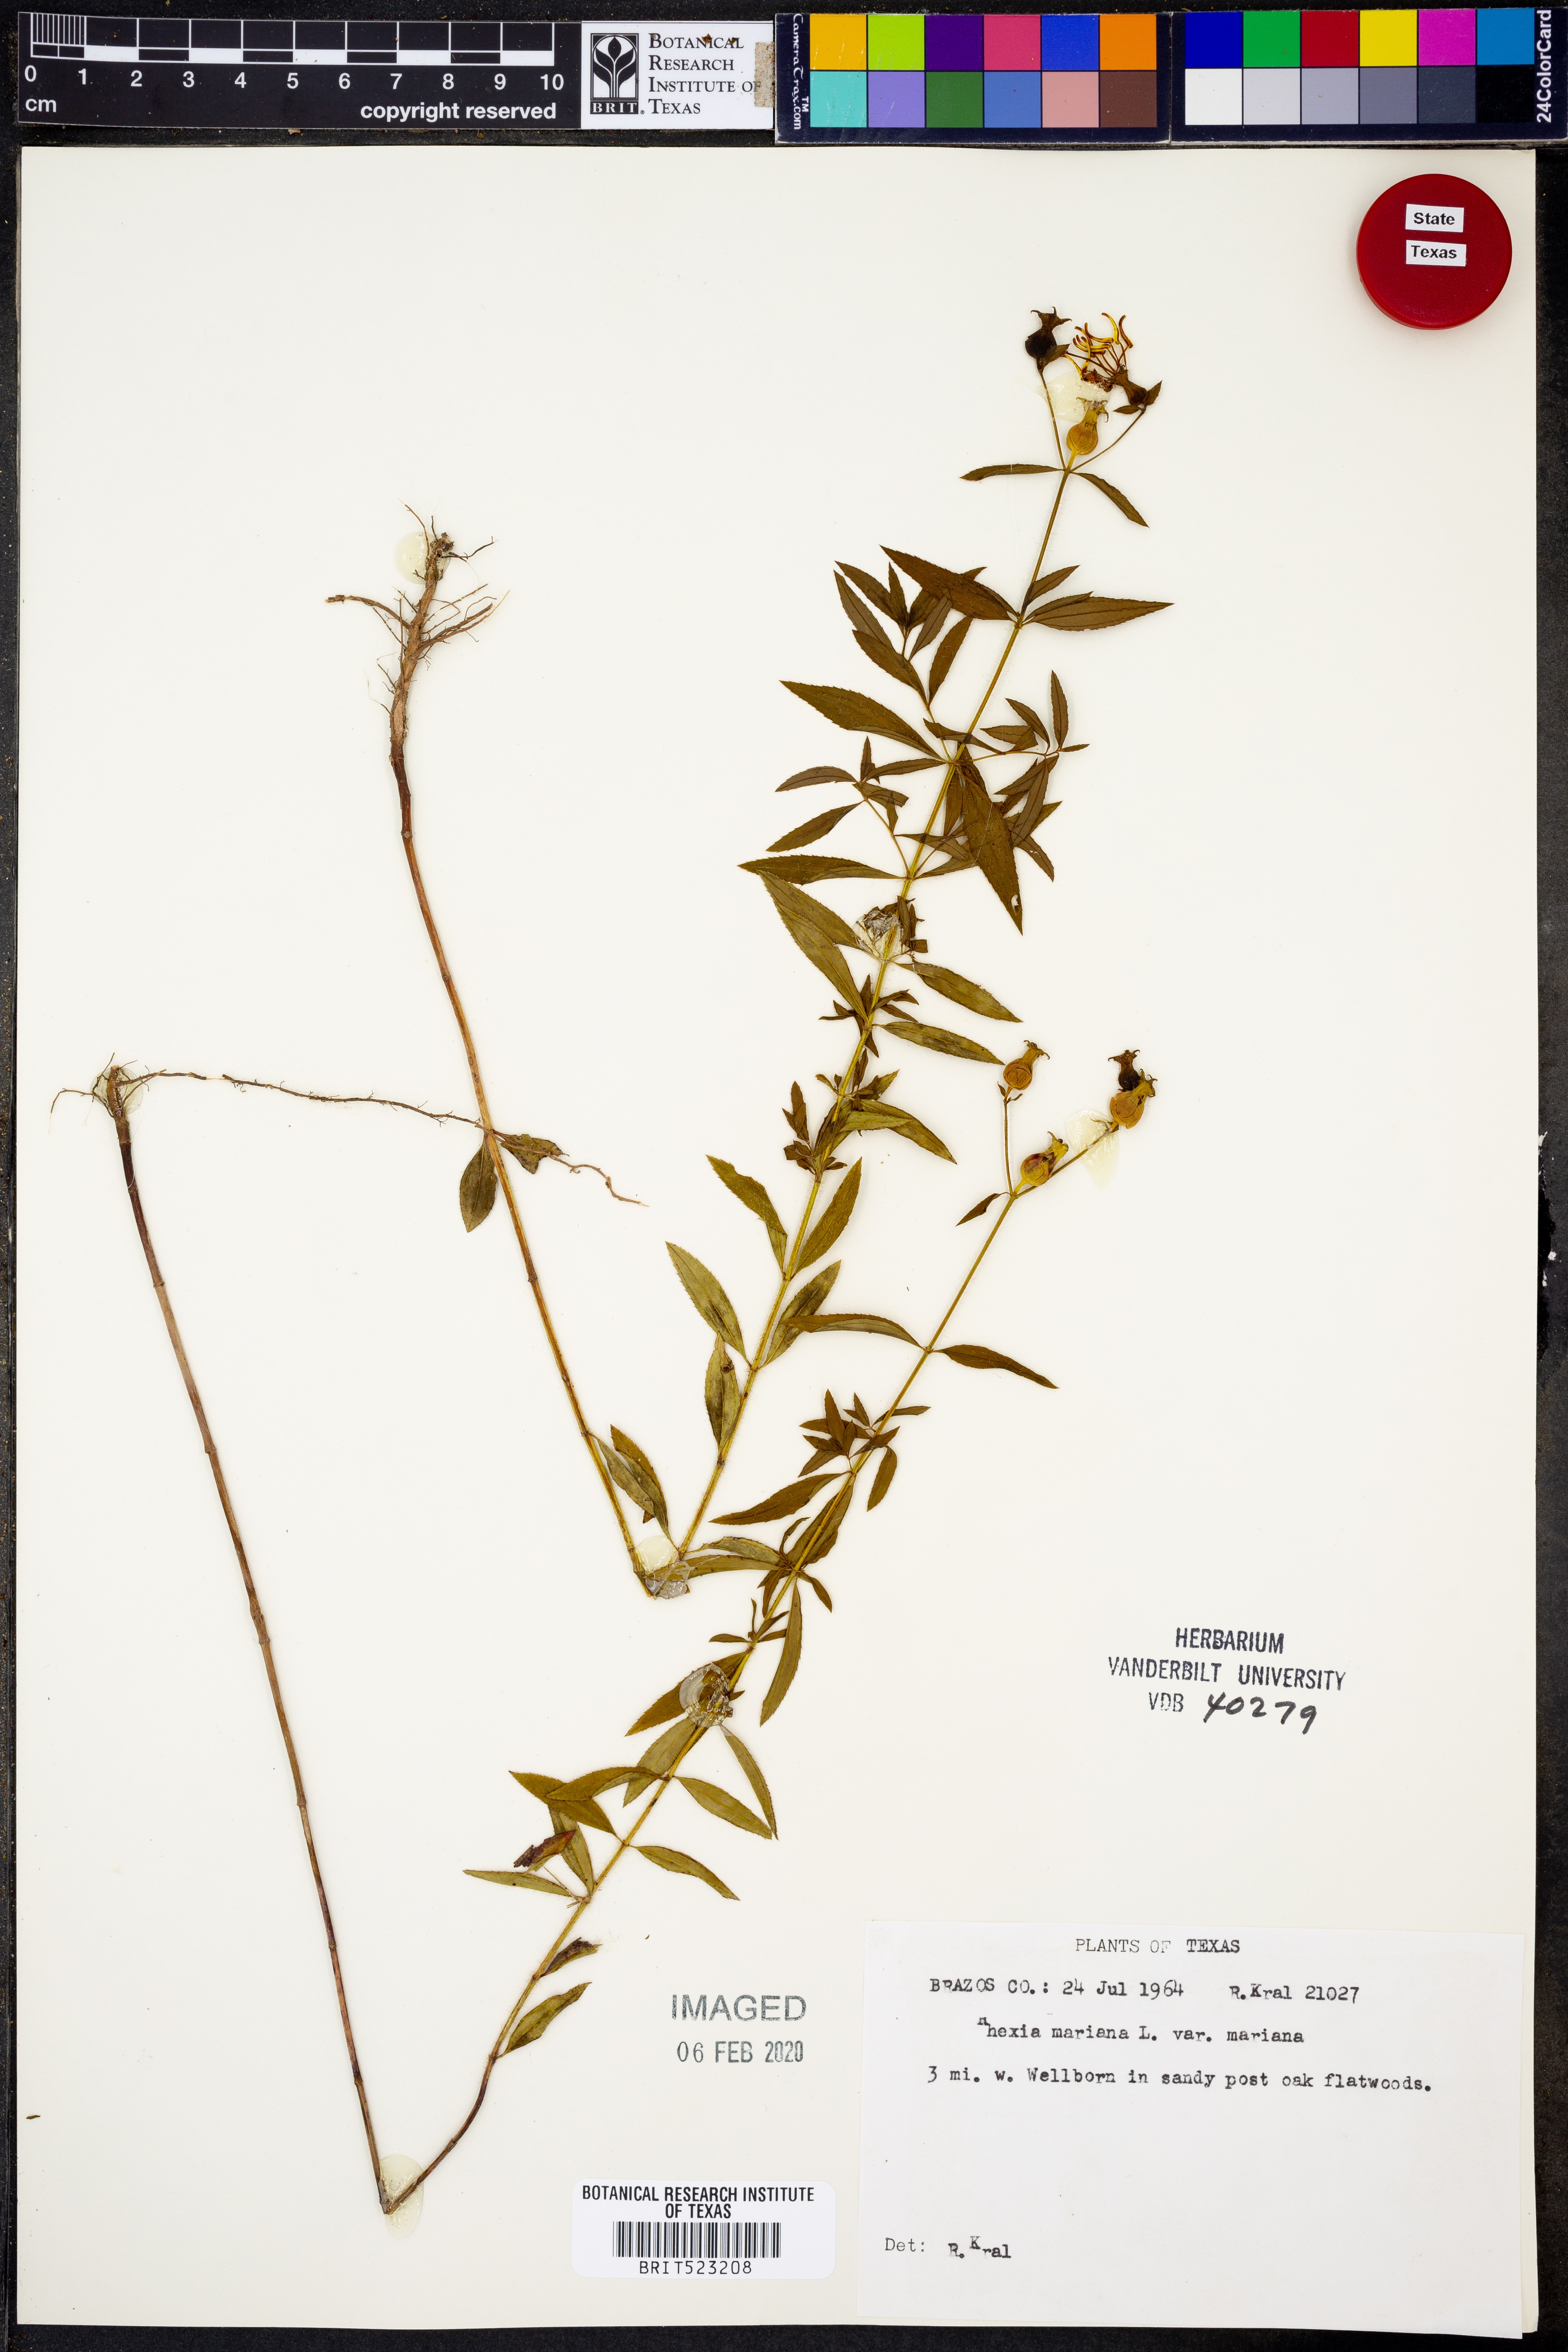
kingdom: Plantae
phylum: Tracheophyta
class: Magnoliopsida
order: Myrtales
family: Melastomataceae
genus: Rhexia
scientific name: Rhexia mariana
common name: Dull meadow-pitcher
